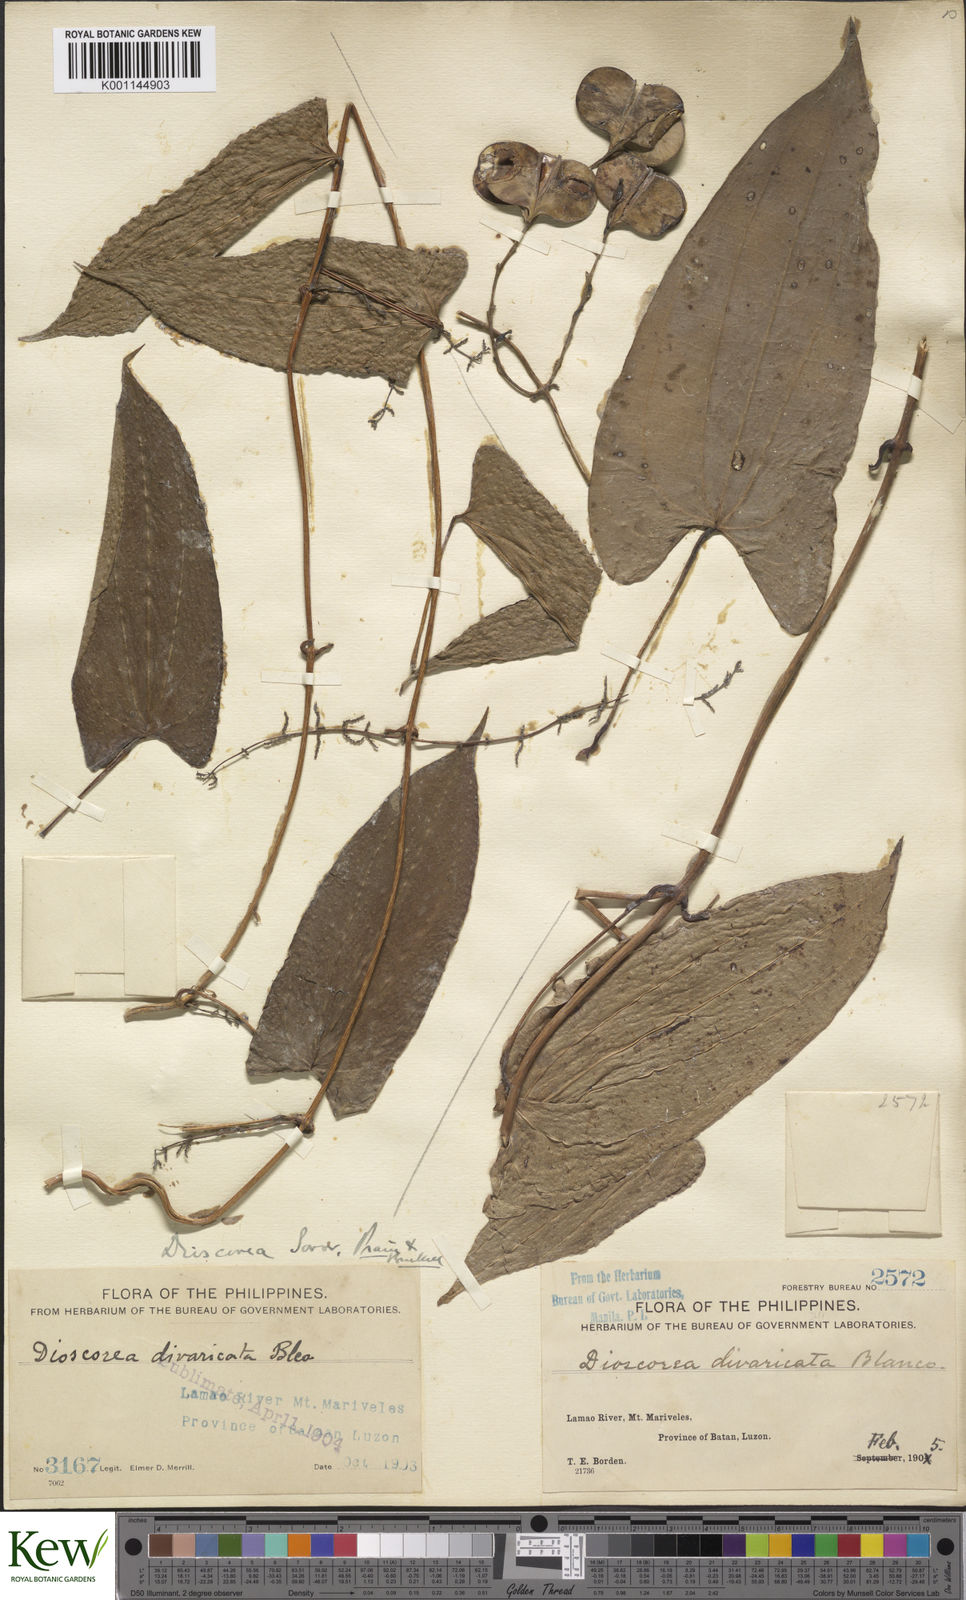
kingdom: Plantae
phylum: Tracheophyta
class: Liliopsida
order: Dioscoreales
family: Dioscoreaceae
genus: Dioscorea
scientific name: Dioscorea divaricata
